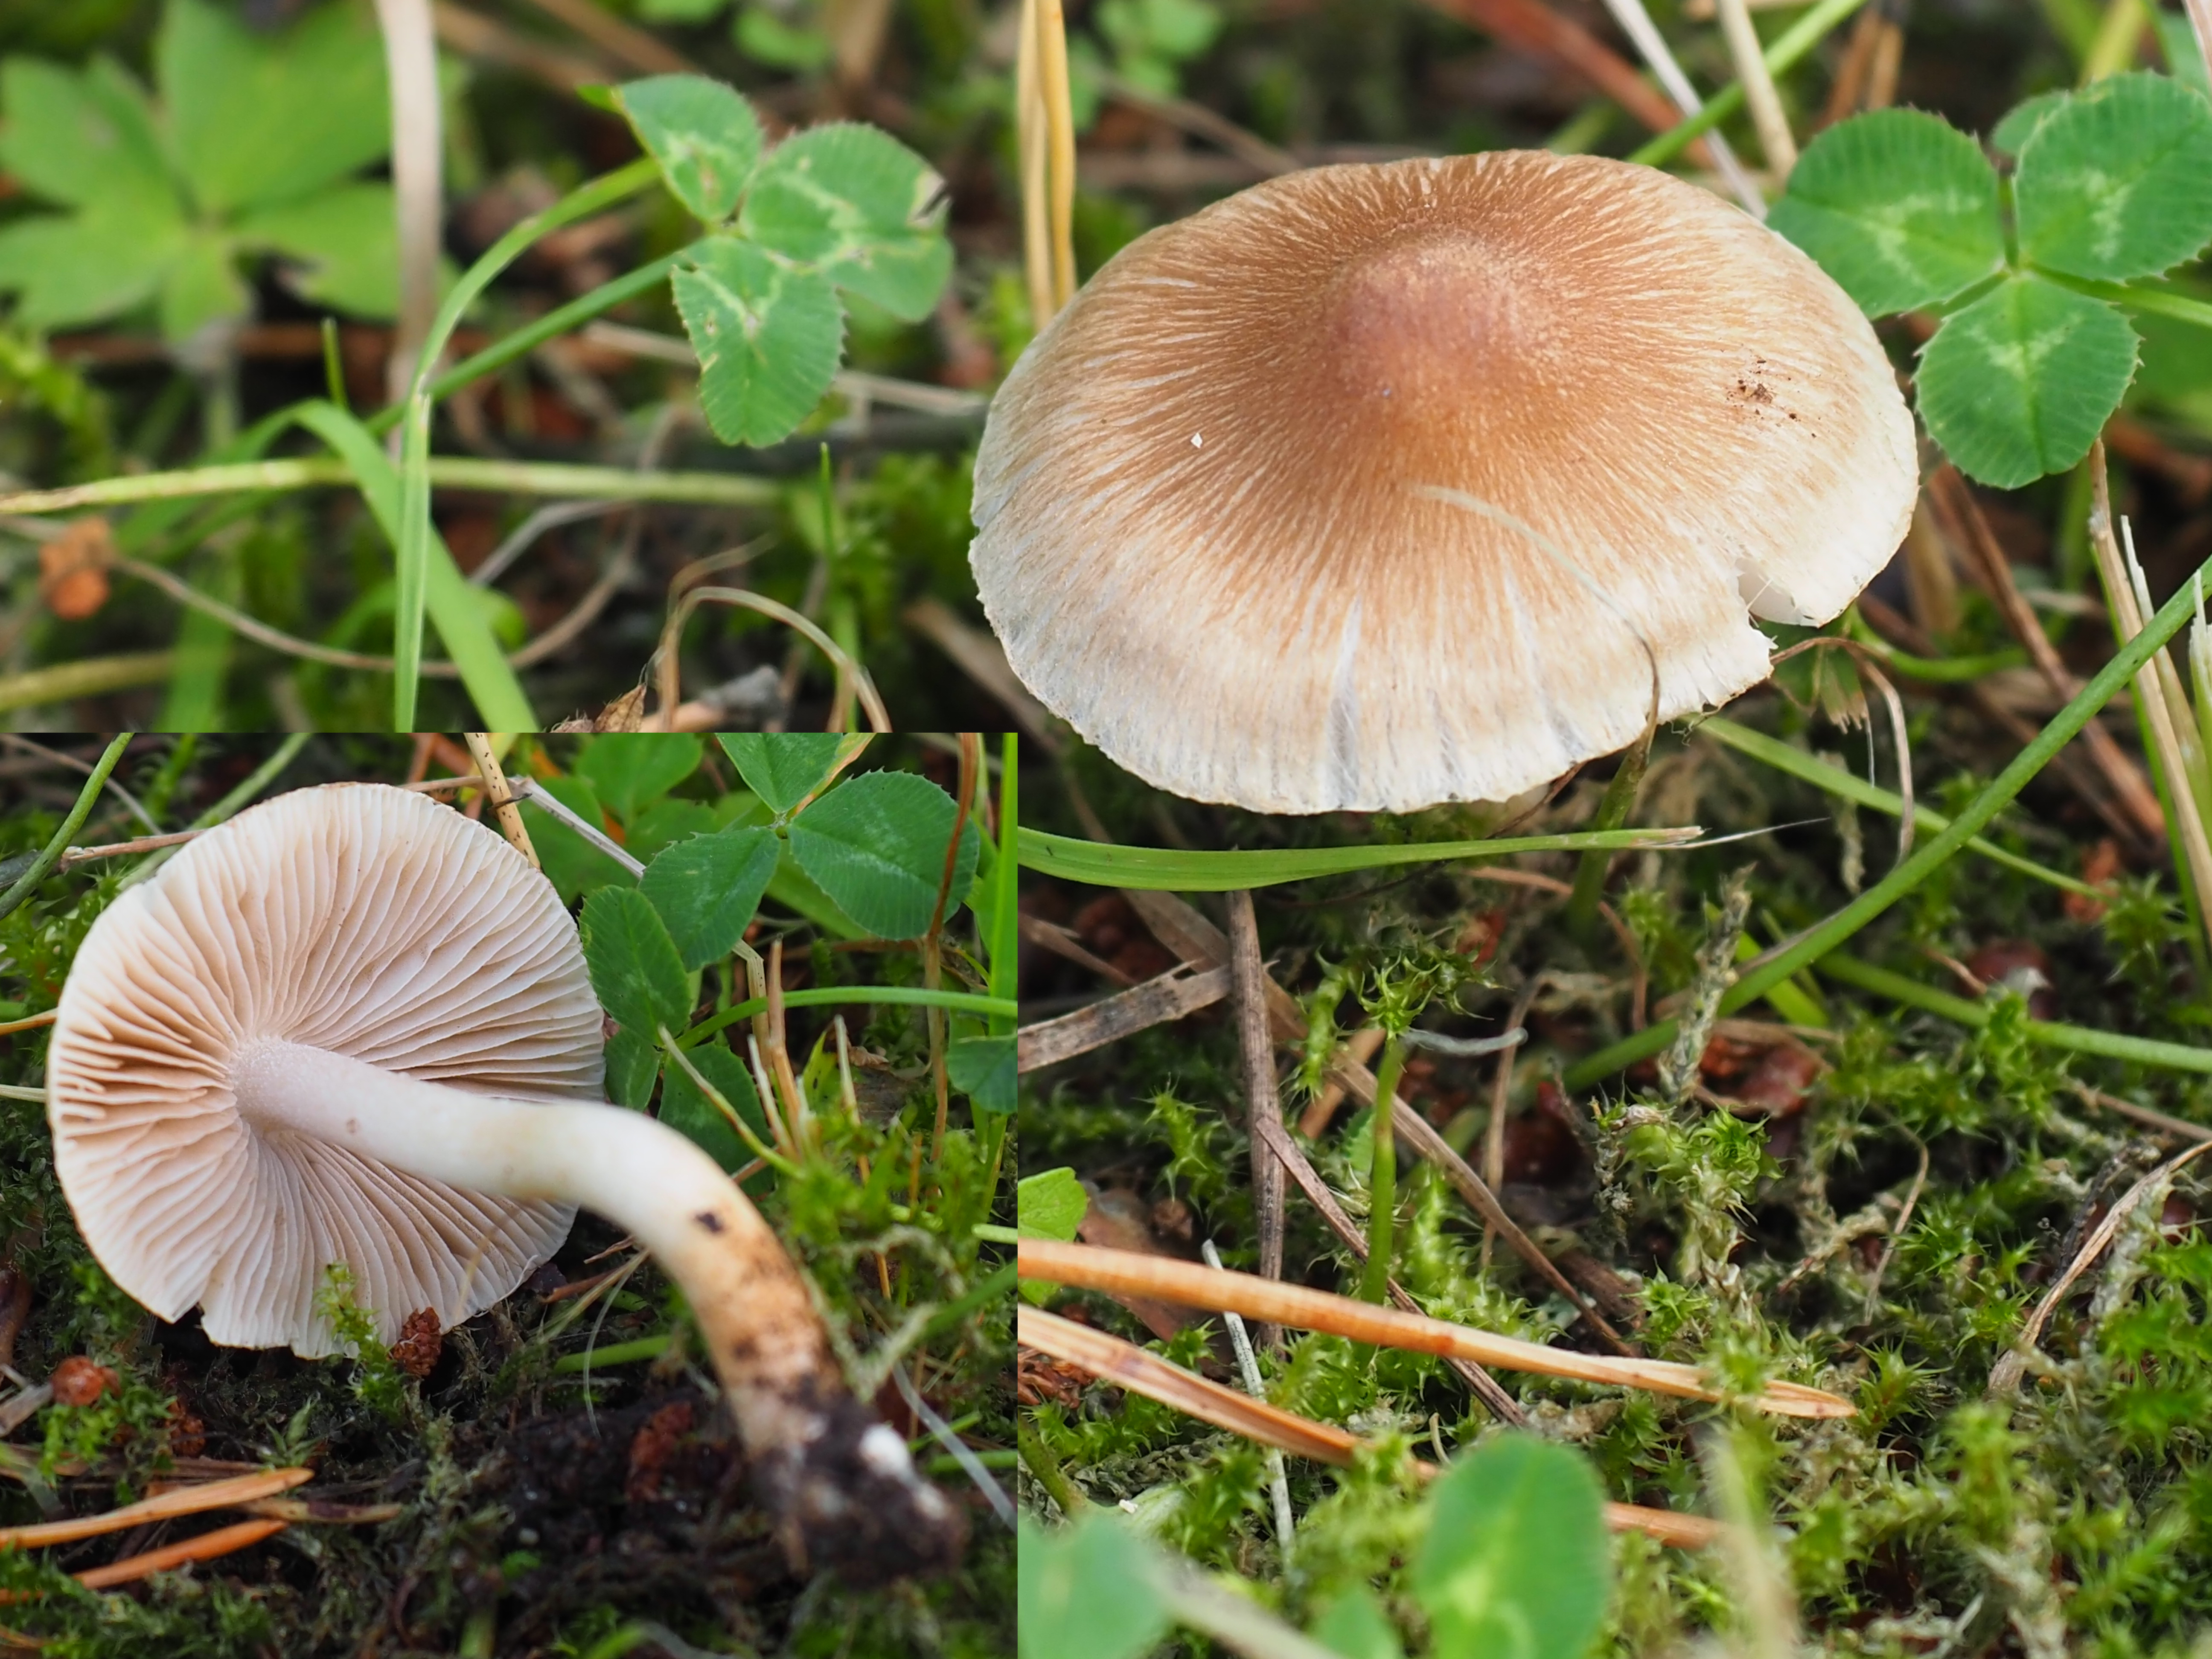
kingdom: Fungi
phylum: Basidiomycota
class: Agaricomycetes
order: Agaricales
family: Inocybaceae
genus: Inocybe
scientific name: Inocybe
